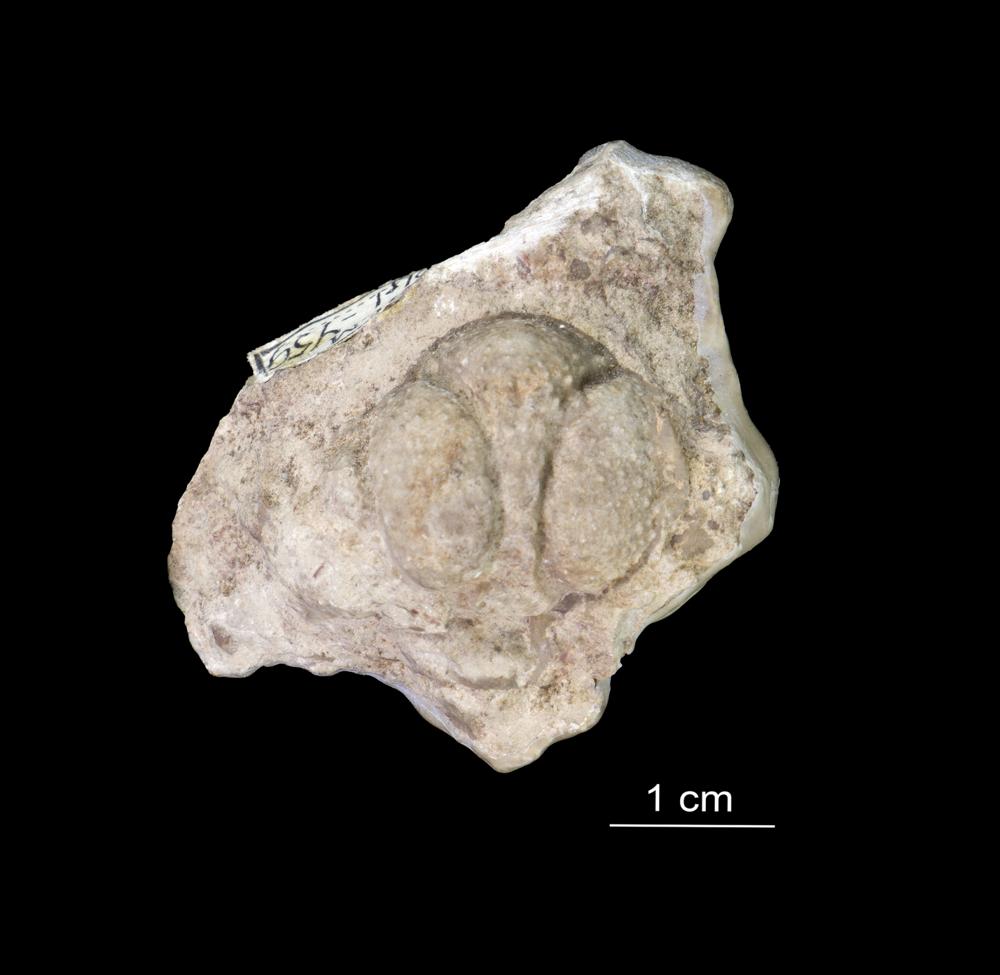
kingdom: Animalia
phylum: Arthropoda
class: Trilobita
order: Lichida
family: Lichidae
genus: Hoplolichoides
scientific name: Hoplolichoides conicotuberculatus
